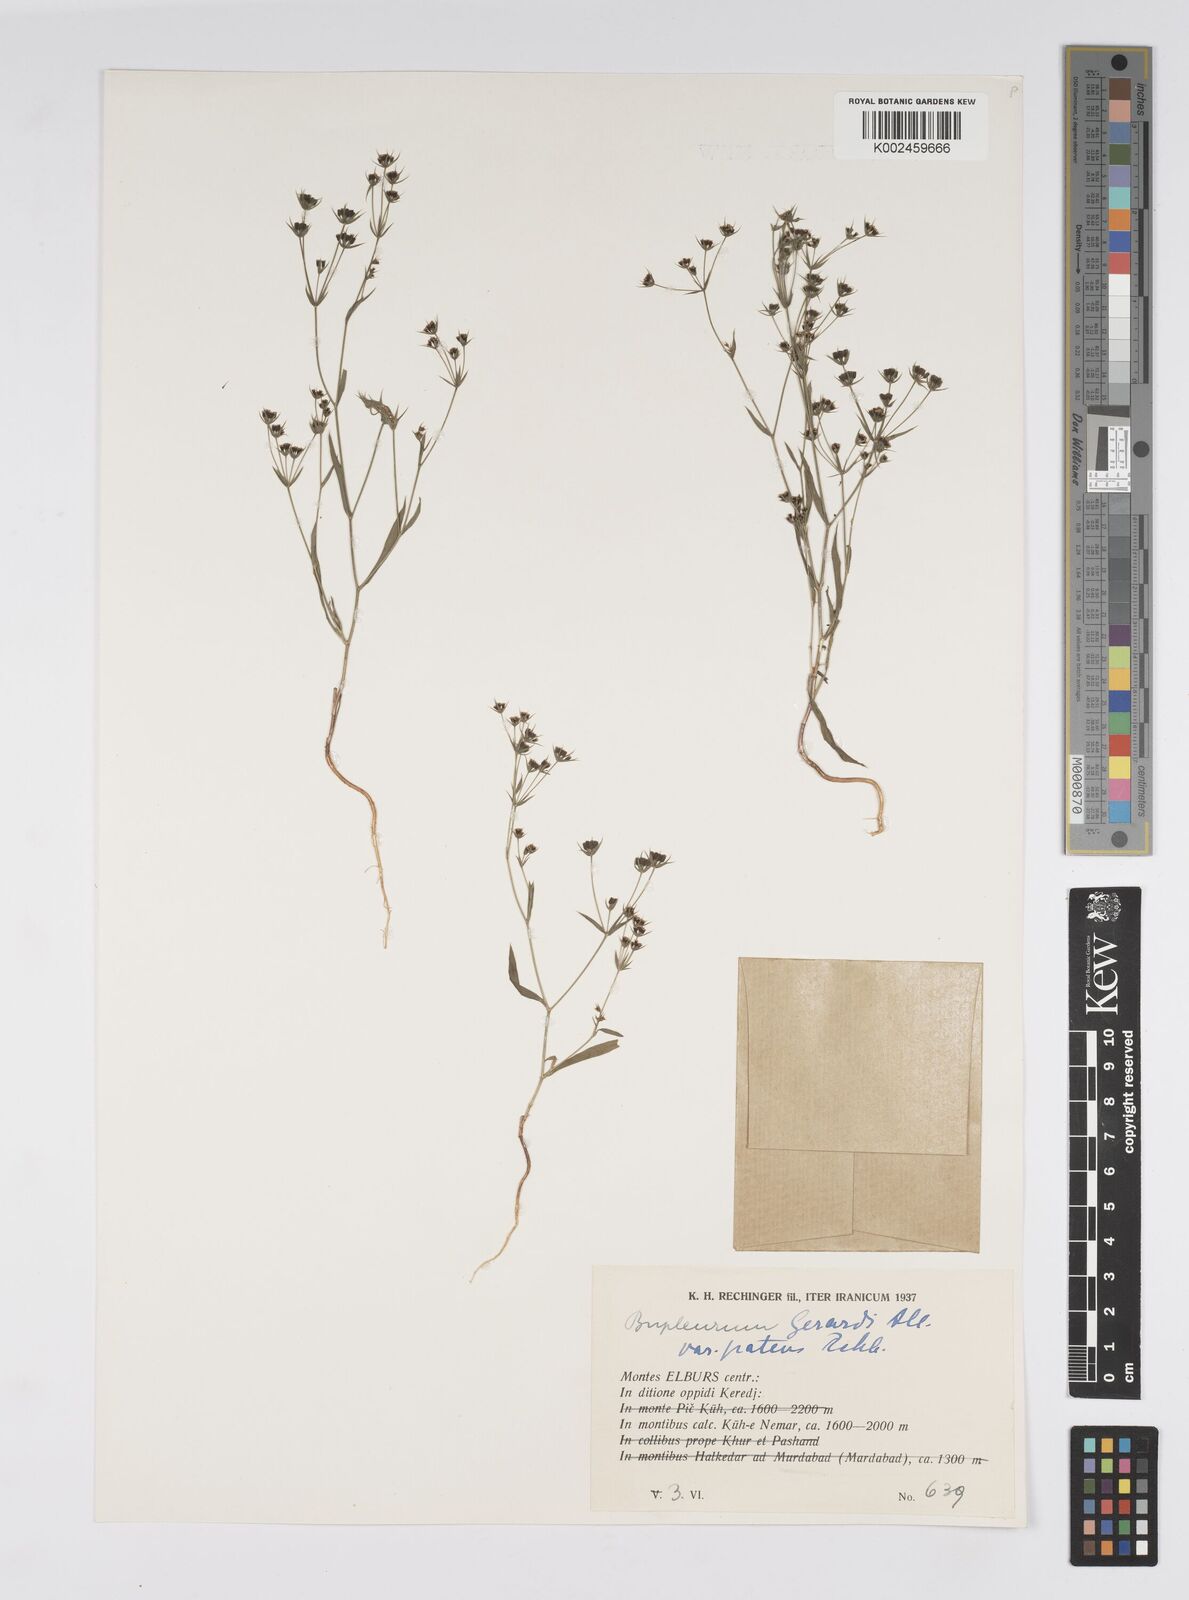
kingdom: Plantae
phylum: Tracheophyta
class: Magnoliopsida
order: Apiales
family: Apiaceae
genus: Bupleurum
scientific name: Bupleurum gerardi
